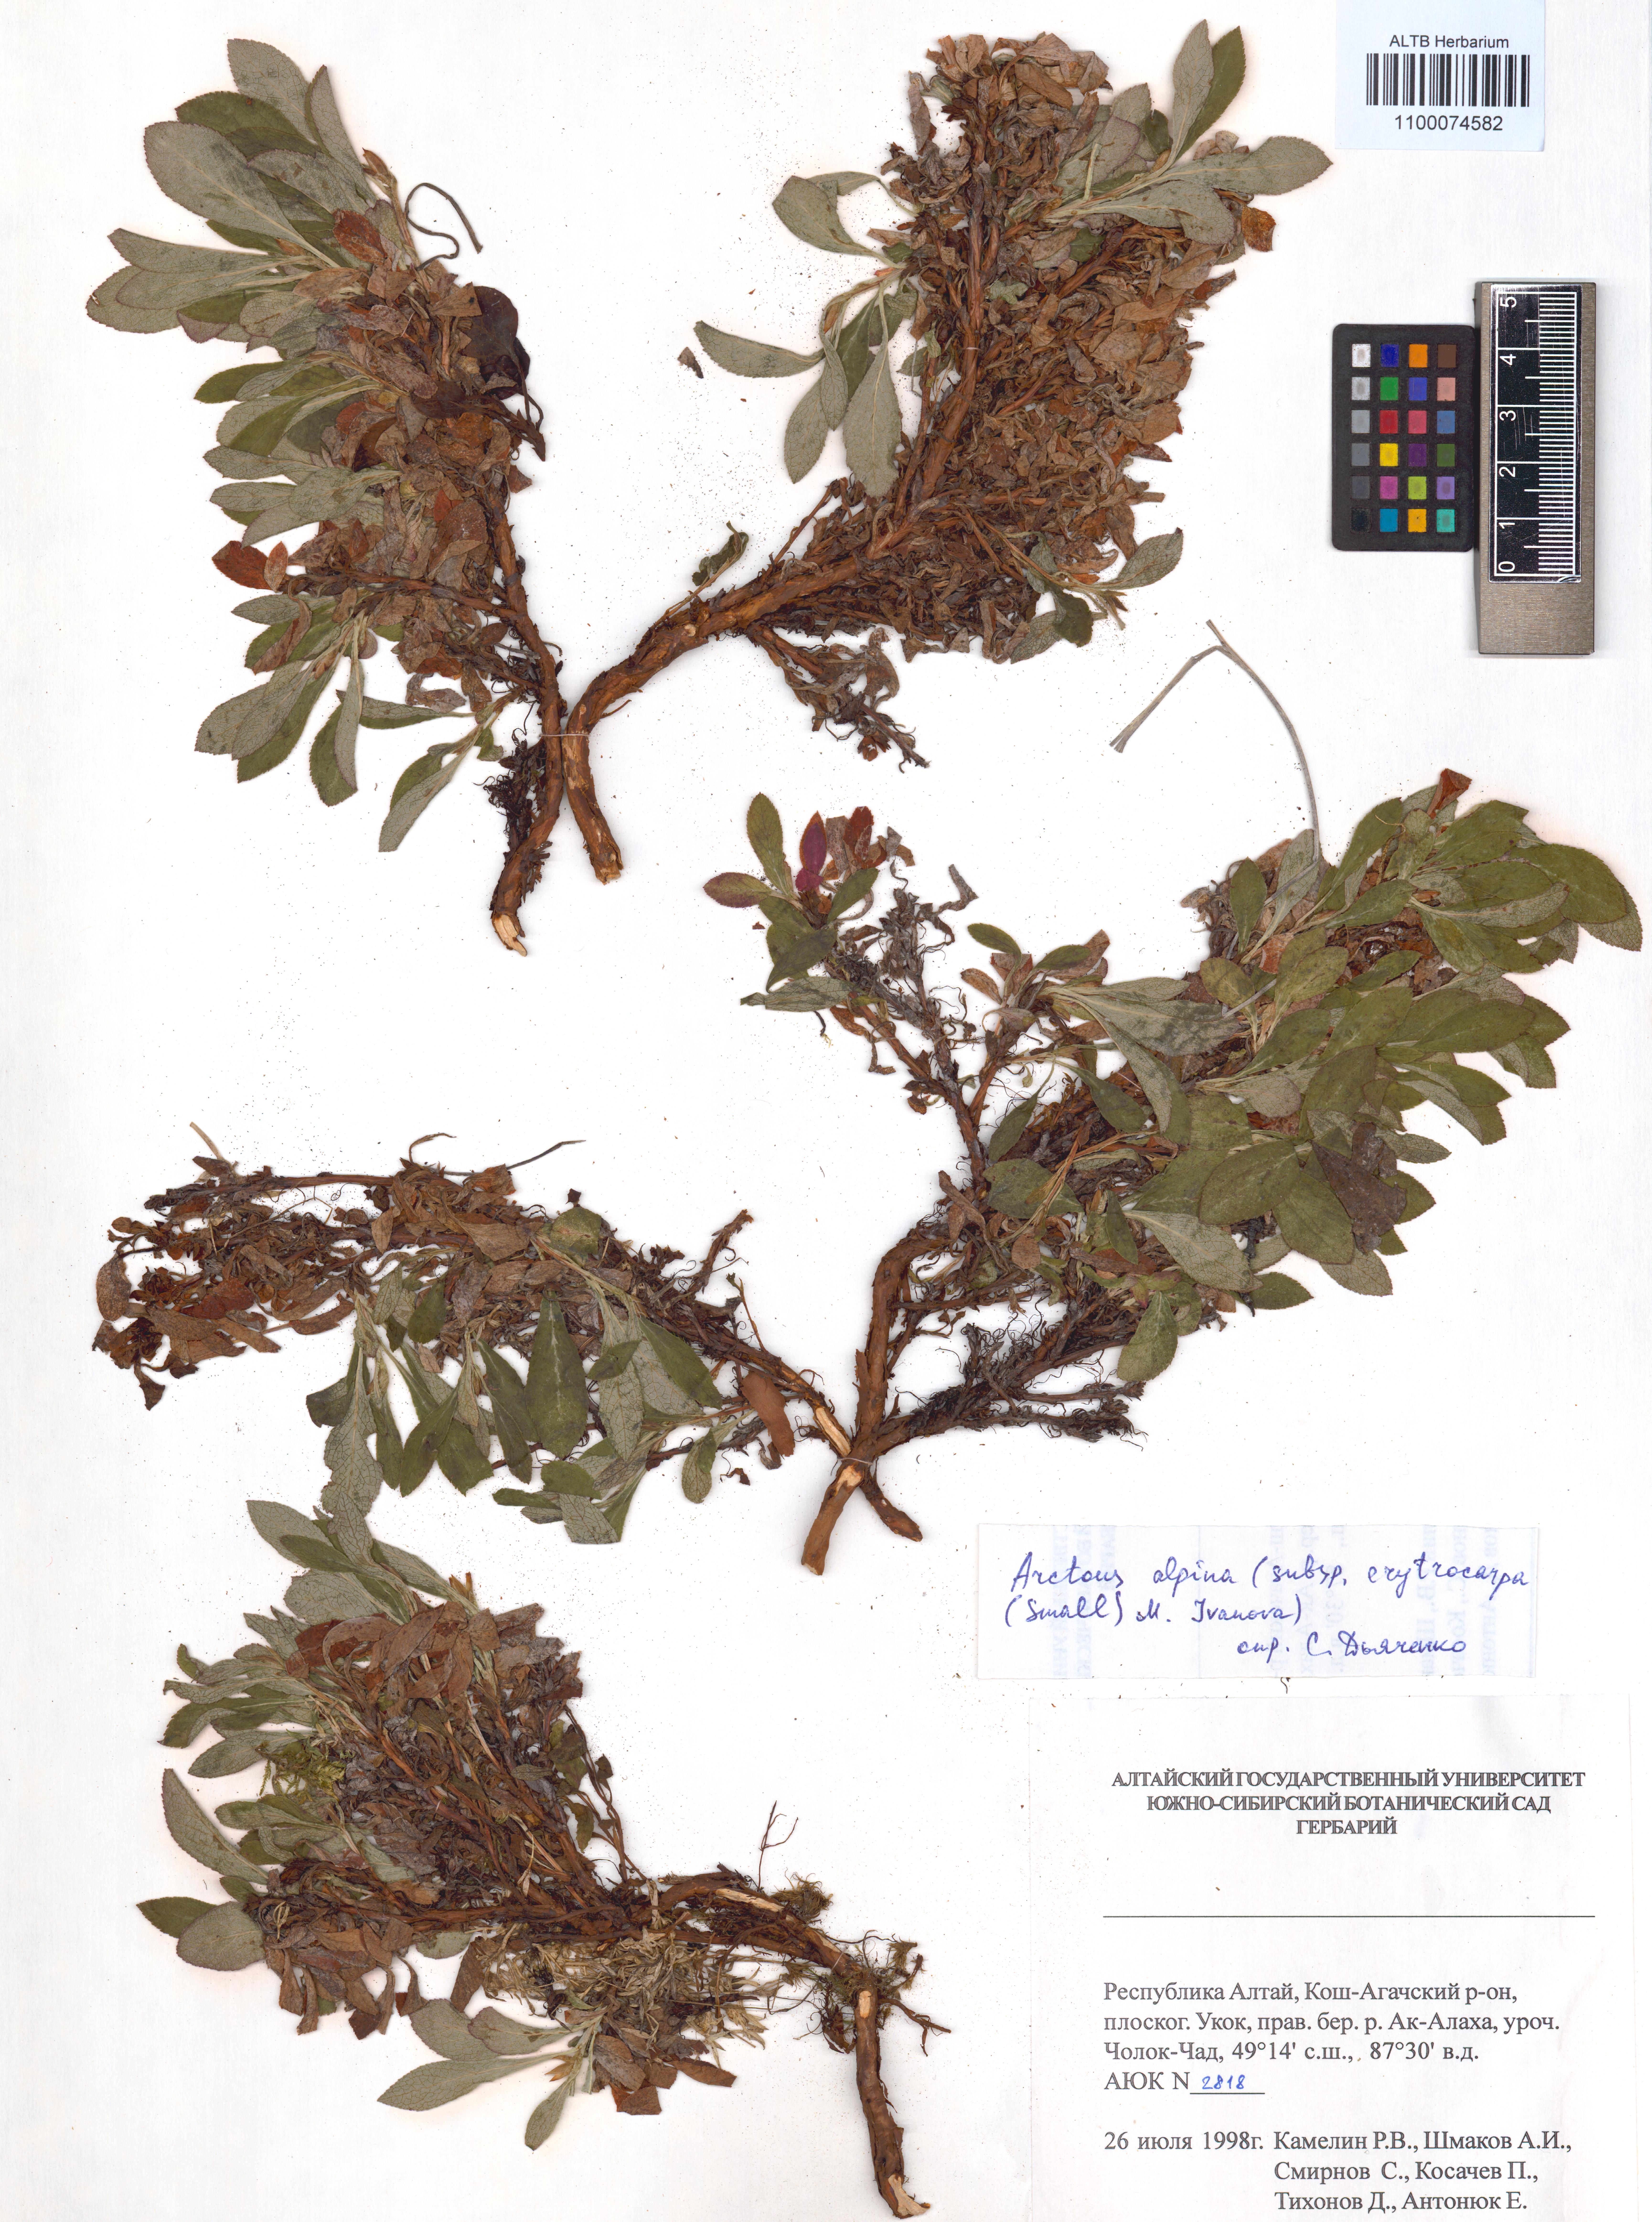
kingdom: Plantae
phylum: Tracheophyta
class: Magnoliopsida
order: Ericales
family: Ericaceae
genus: Arctostaphylos
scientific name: Arctostaphylos alpinus
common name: Alpine bearberry
